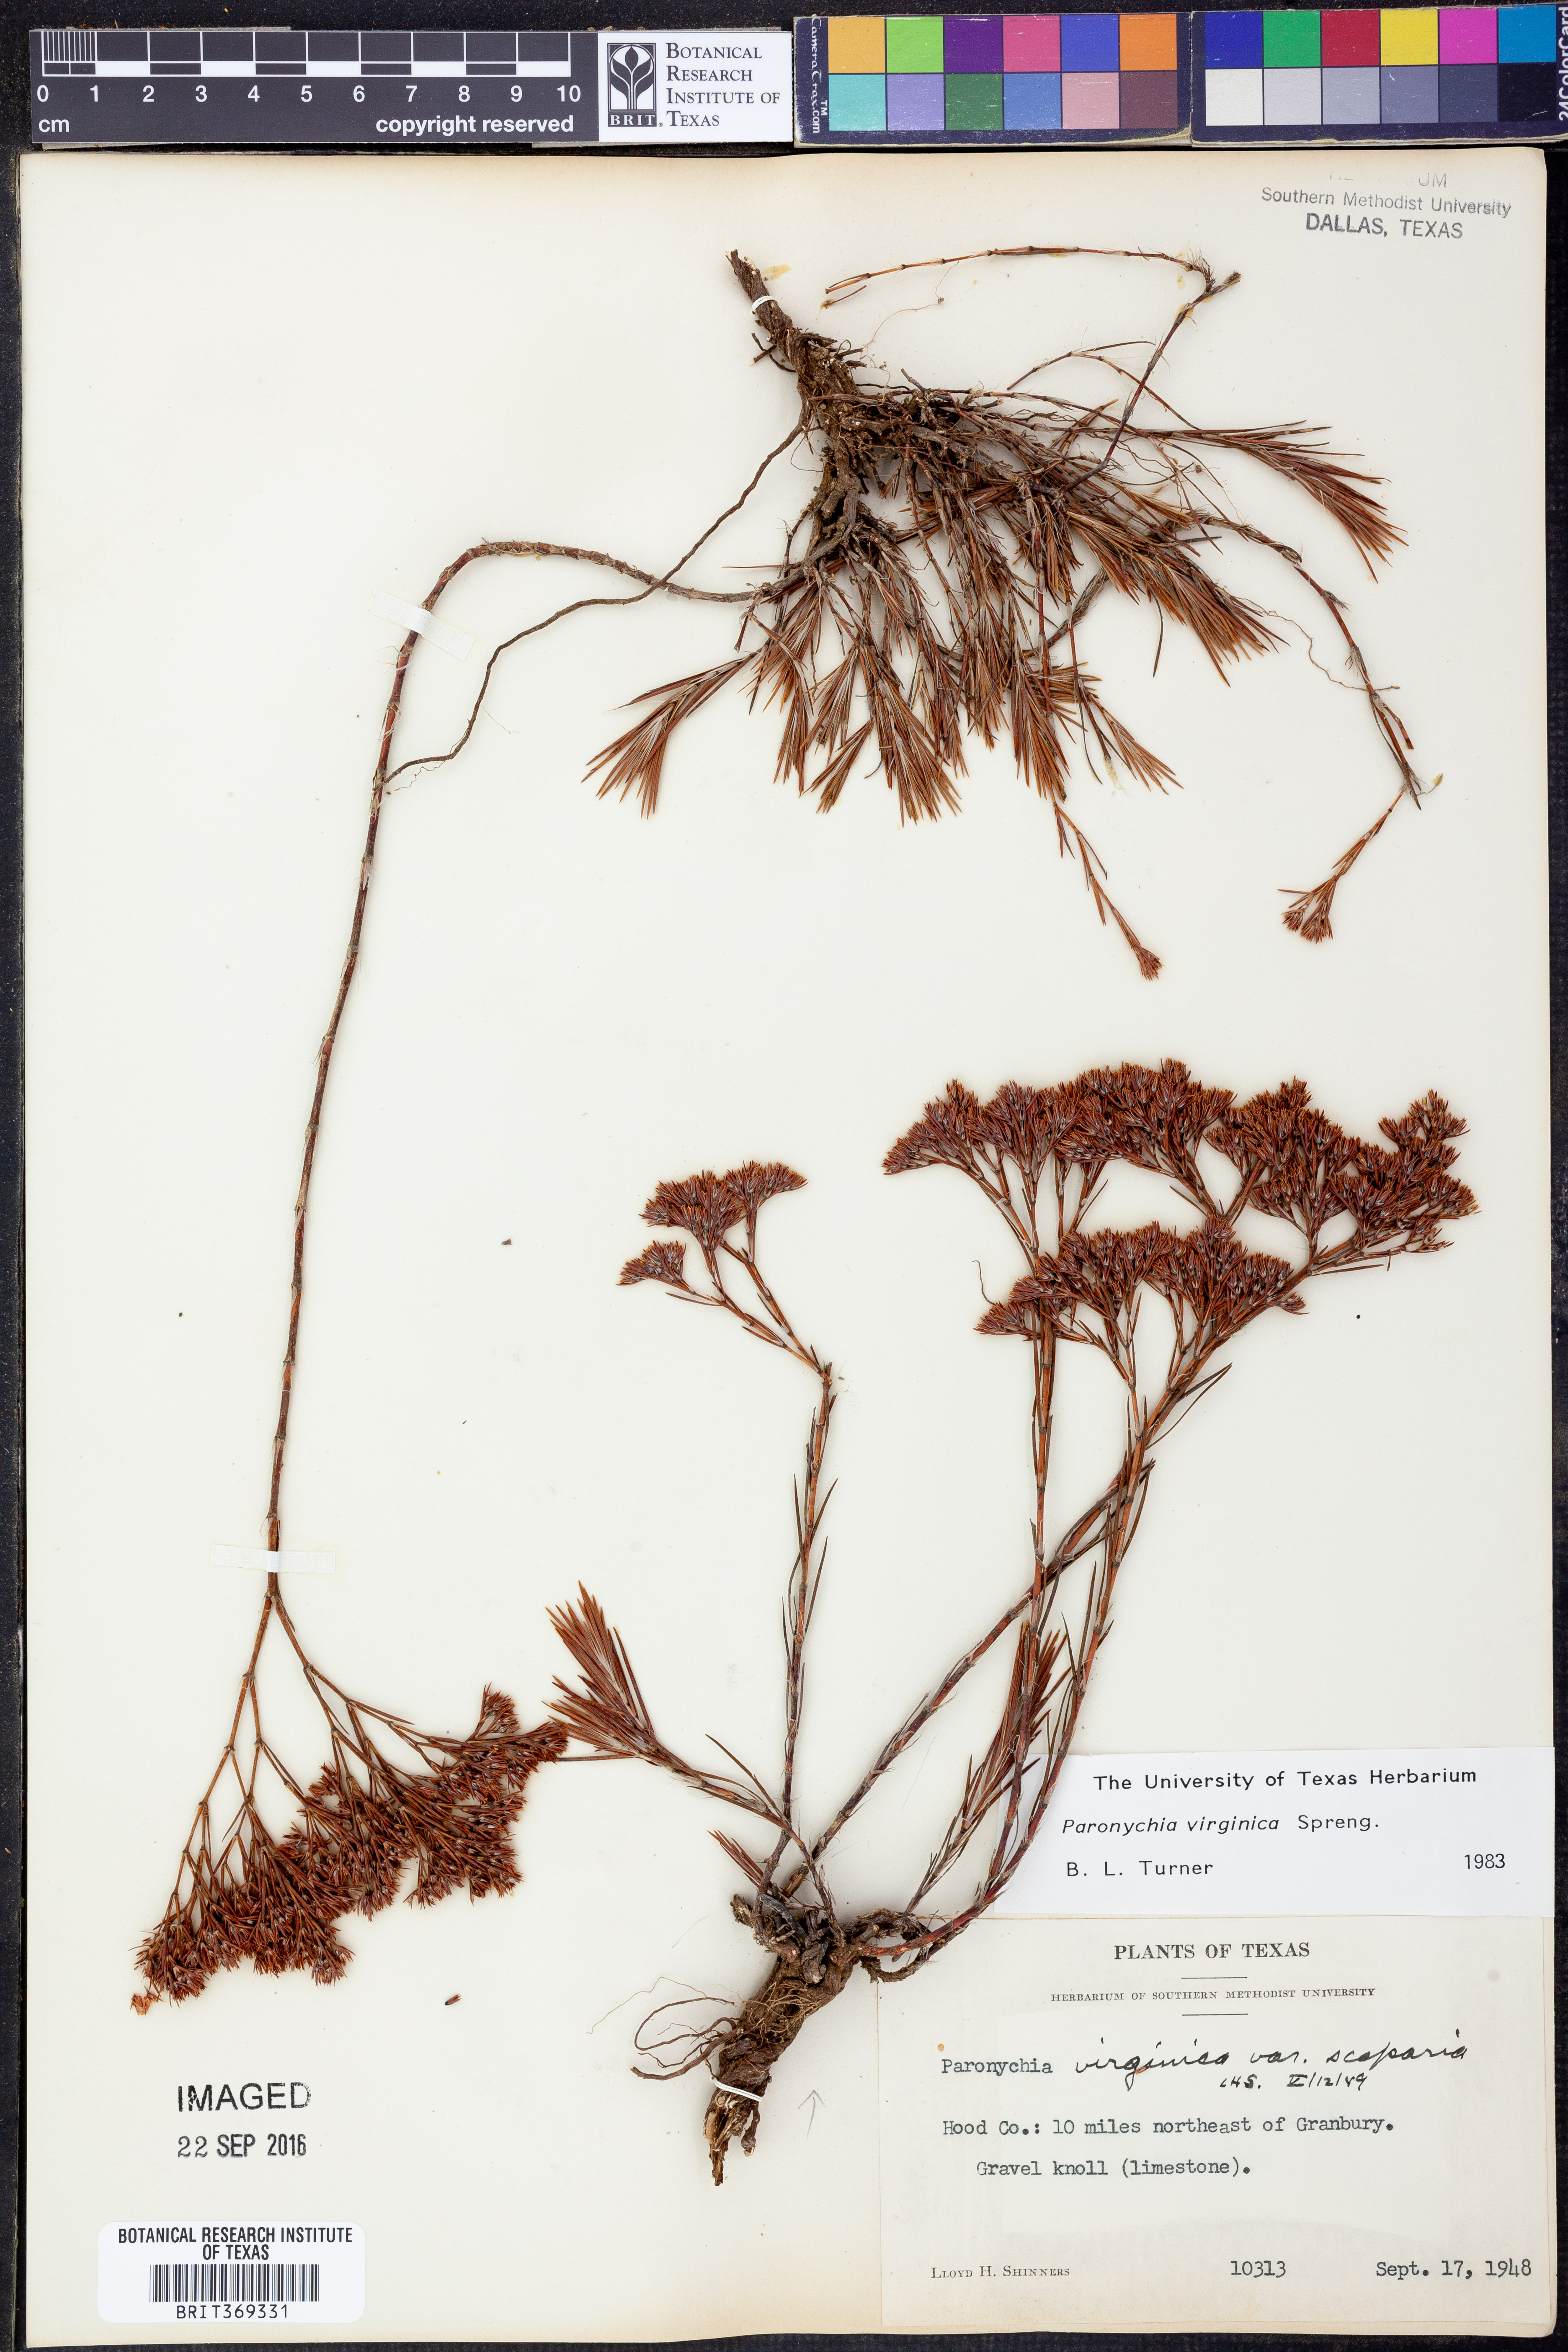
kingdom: Plantae
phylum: Tracheophyta
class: Magnoliopsida
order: Caryophyllales
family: Caryophyllaceae
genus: Paronychia
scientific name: Paronychia virginica
